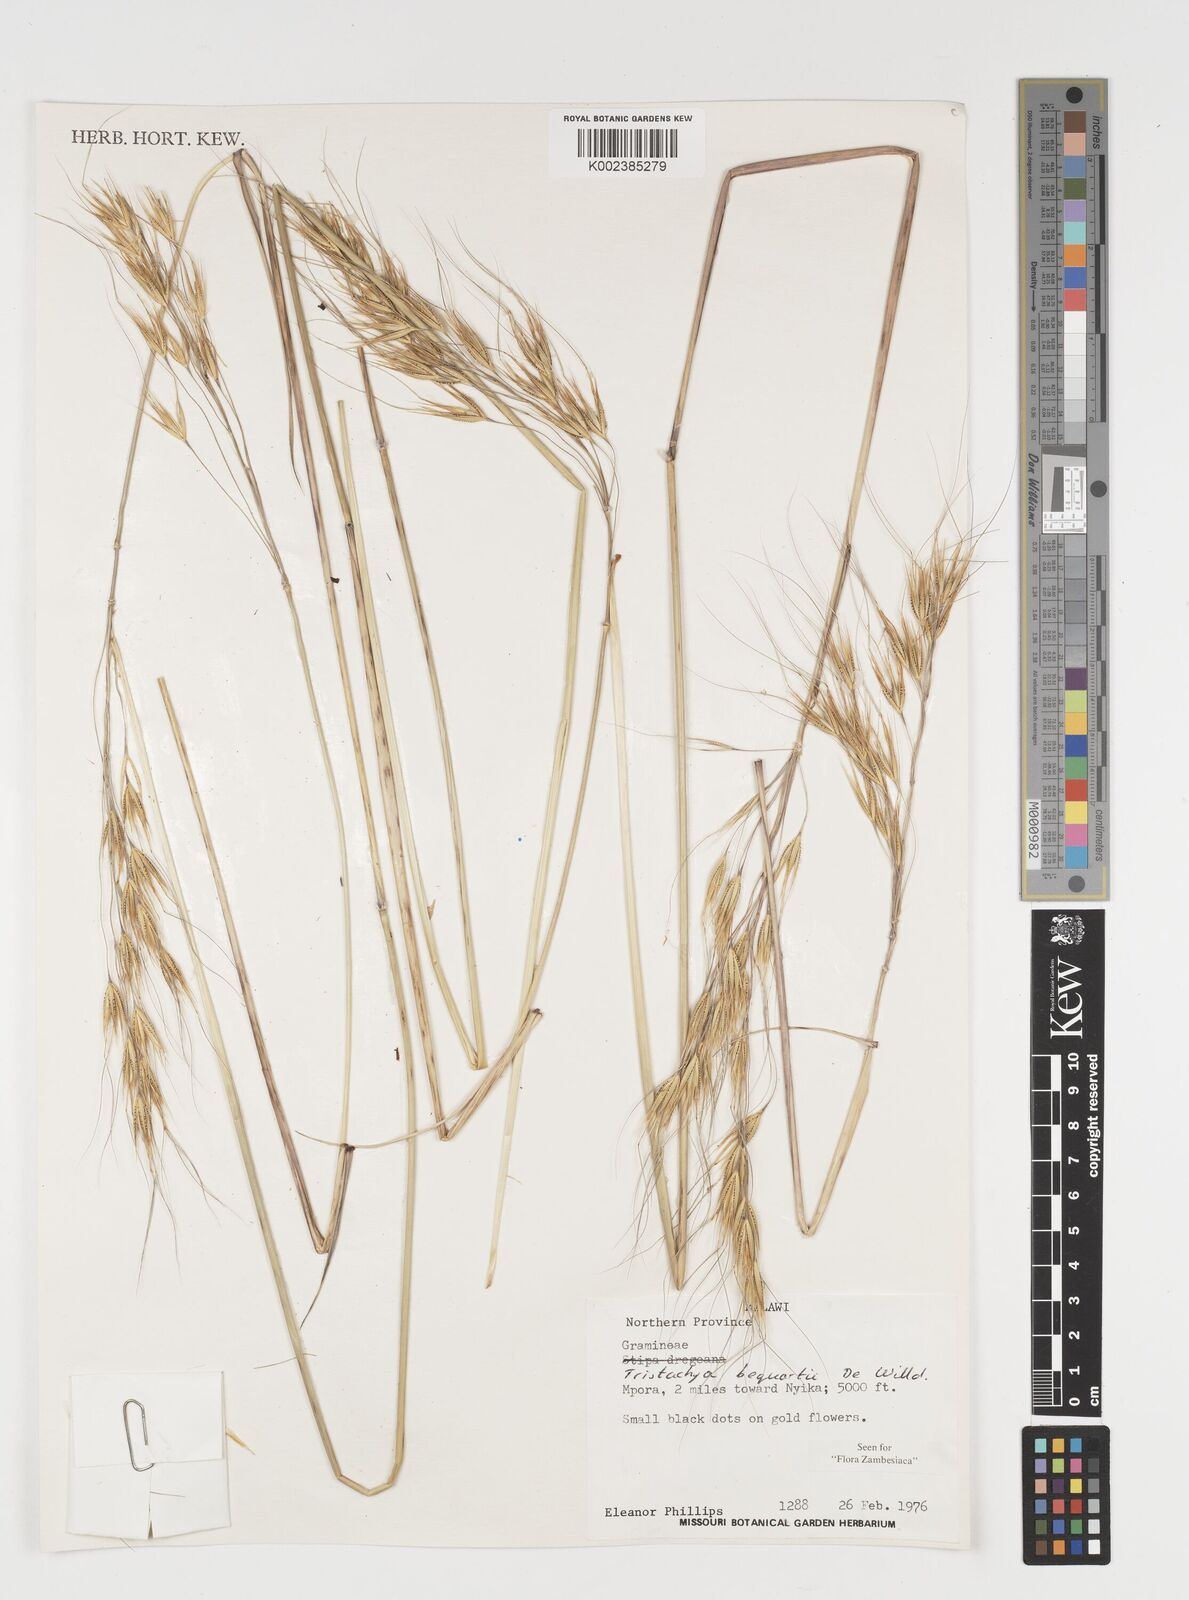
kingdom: Plantae
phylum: Tracheophyta
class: Liliopsida
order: Poales
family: Poaceae
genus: Tristachya
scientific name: Tristachya bequaertii
